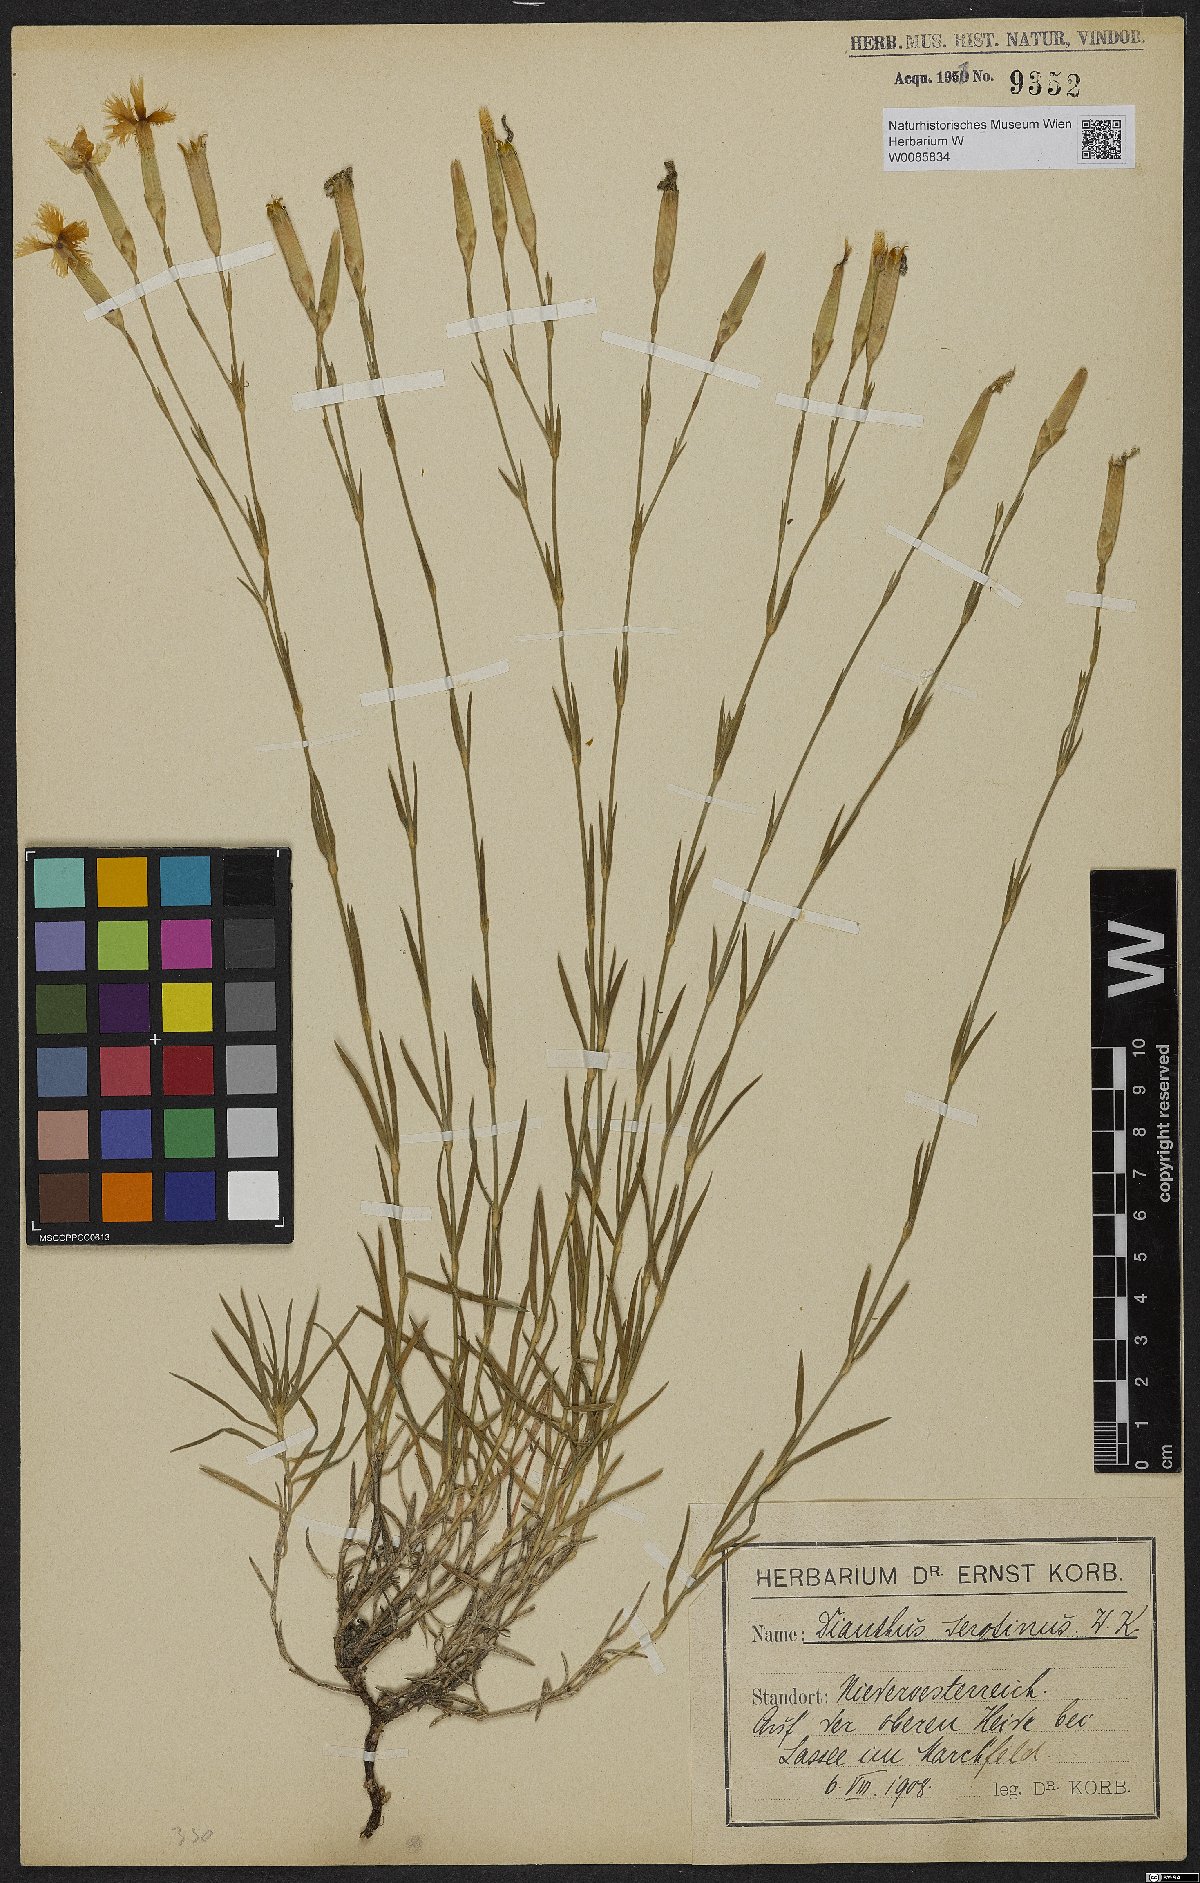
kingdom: Plantae
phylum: Tracheophyta
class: Magnoliopsida
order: Caryophyllales
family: Caryophyllaceae
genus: Dianthus
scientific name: Dianthus serotinus
